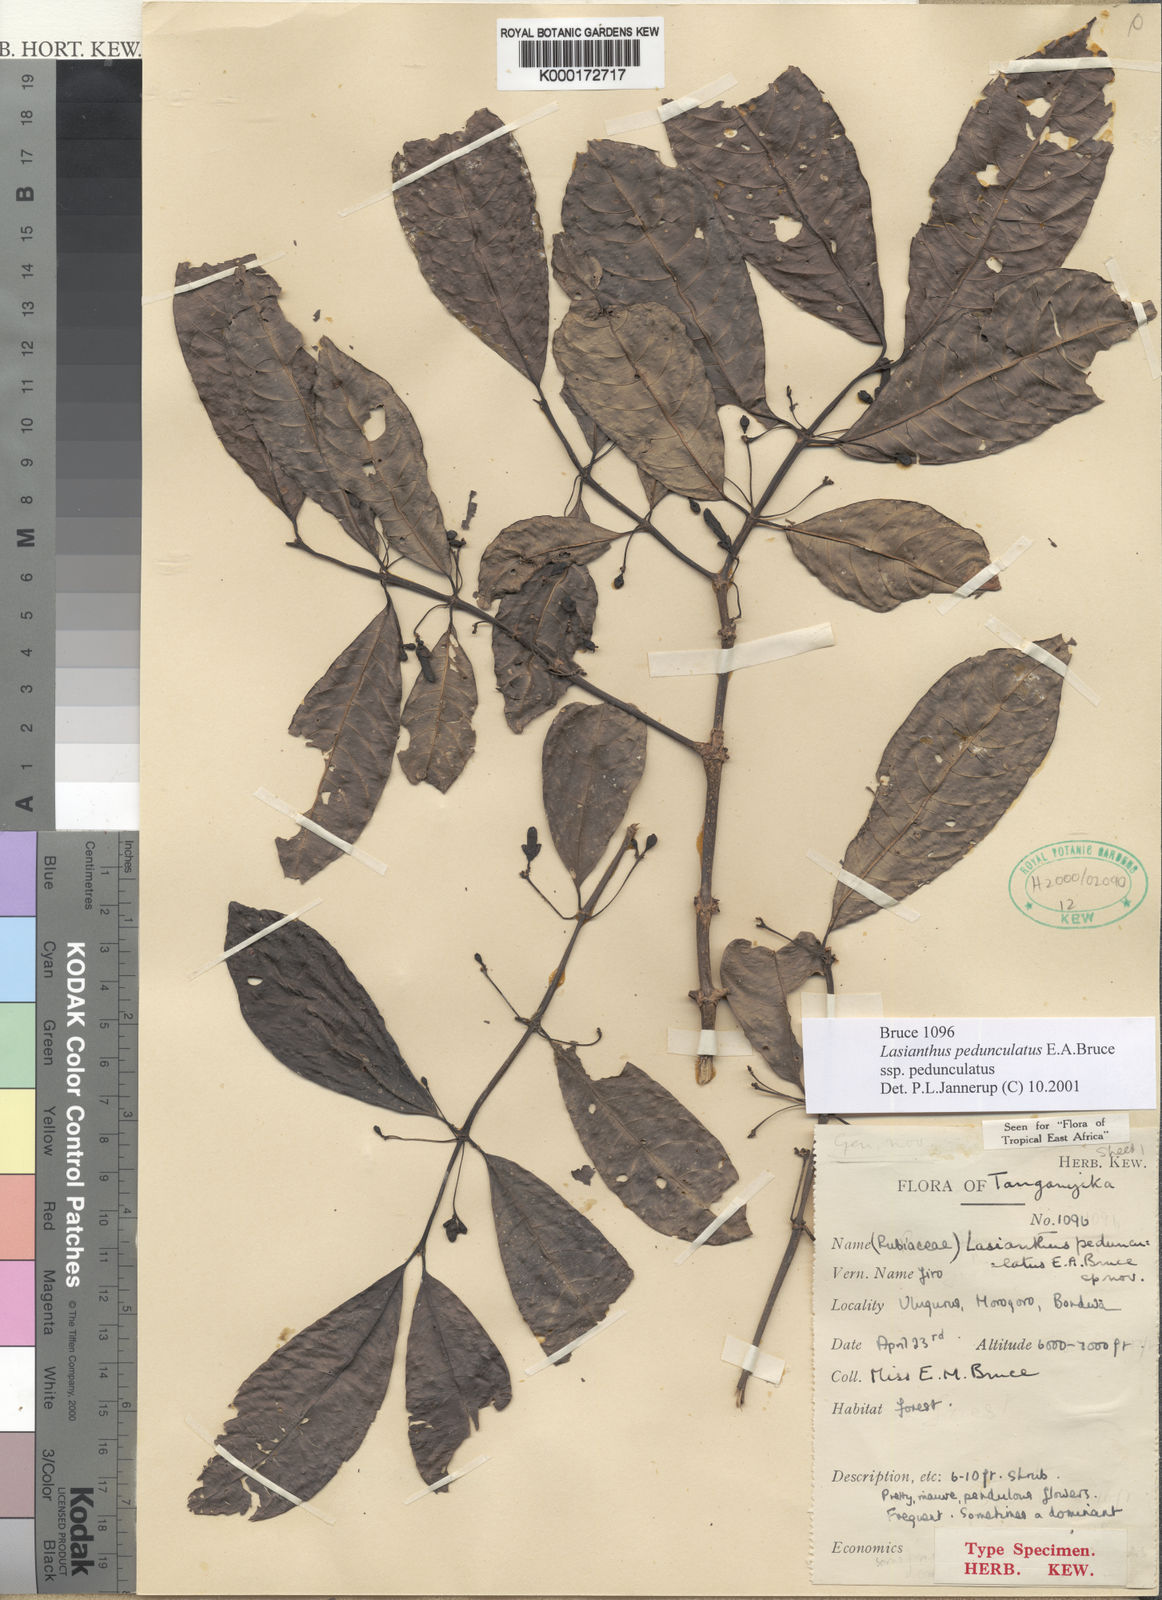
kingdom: Plantae
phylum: Tracheophyta
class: Magnoliopsida
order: Gentianales
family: Rubiaceae
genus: Lasianthus
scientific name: Lasianthus pedunculatus
